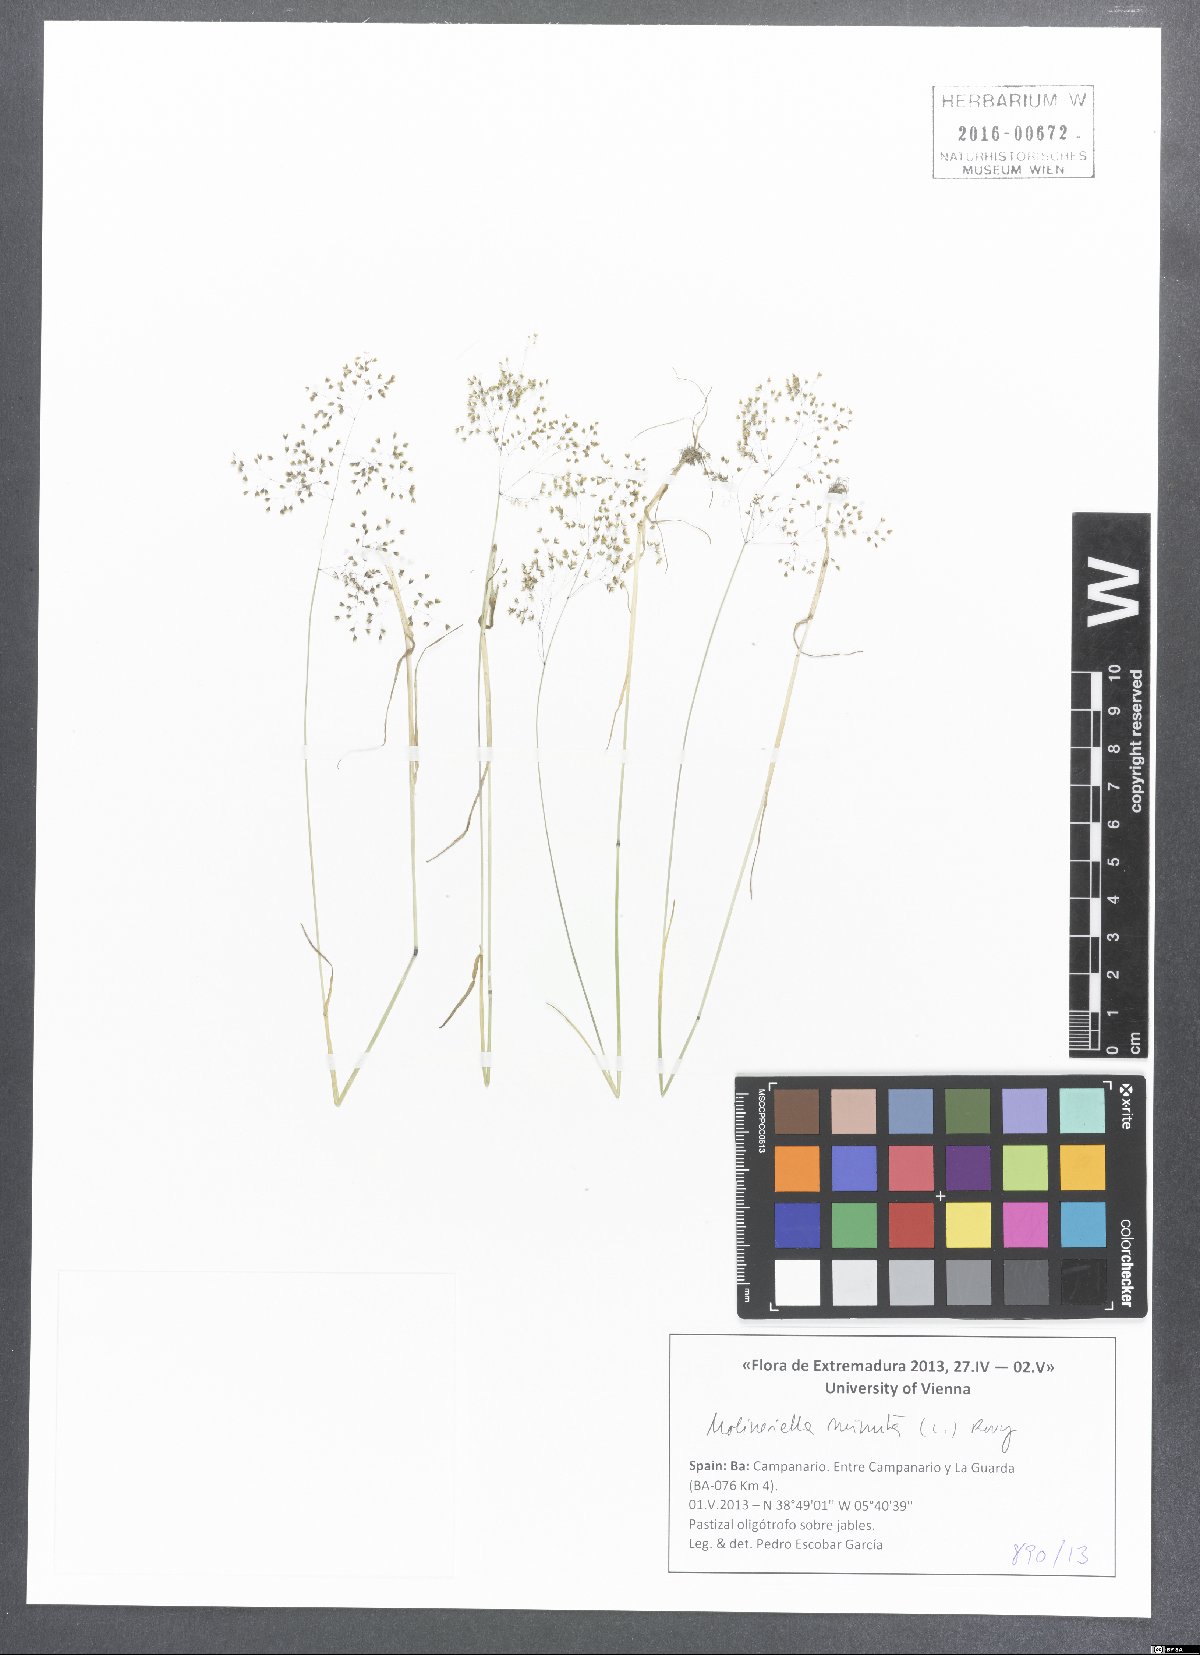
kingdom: Plantae
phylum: Tracheophyta
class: Liliopsida
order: Poales
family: Poaceae
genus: Molineriella
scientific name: Molineriella minuta
